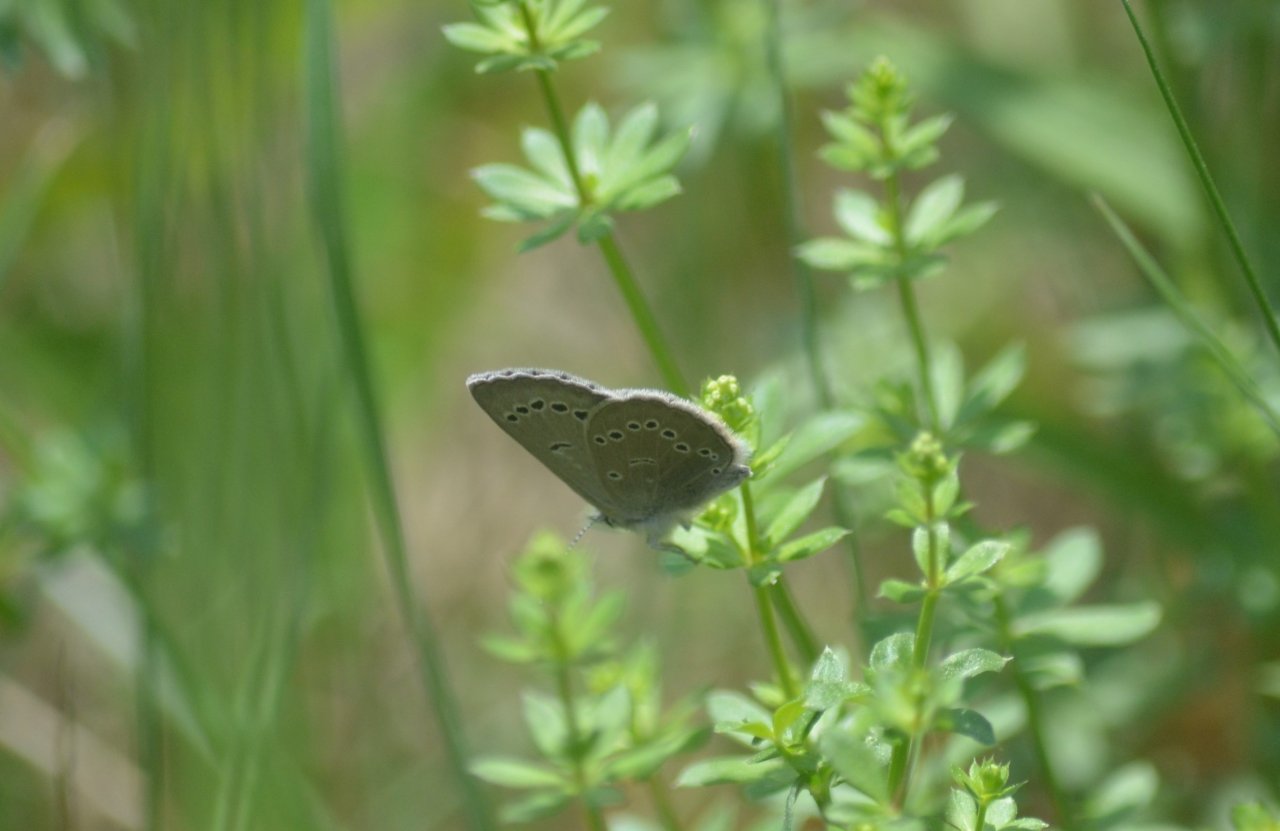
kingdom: Animalia
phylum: Arthropoda
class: Insecta
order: Lepidoptera
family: Lycaenidae
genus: Glaucopsyche
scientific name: Glaucopsyche lygdamus
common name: Silvery Blue
